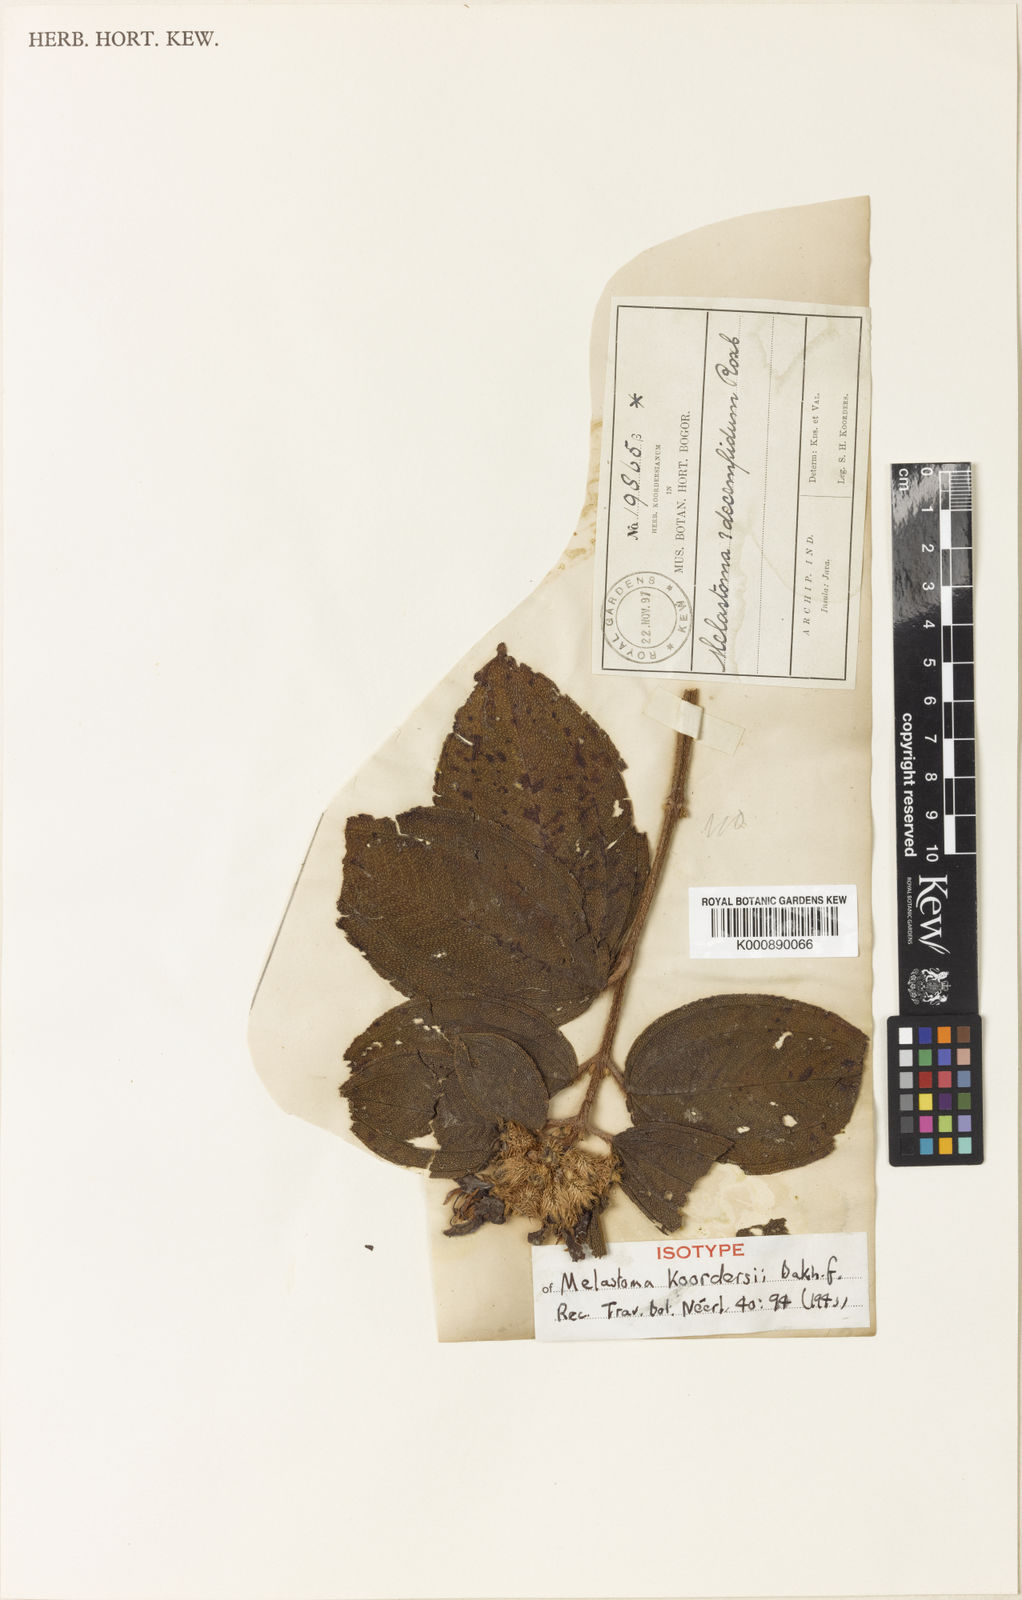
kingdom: Plantae
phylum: Tracheophyta
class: Magnoliopsida
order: Myrtales
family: Melastomataceae
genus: Melastoma
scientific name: Melastoma sanguineum
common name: Red melastome
